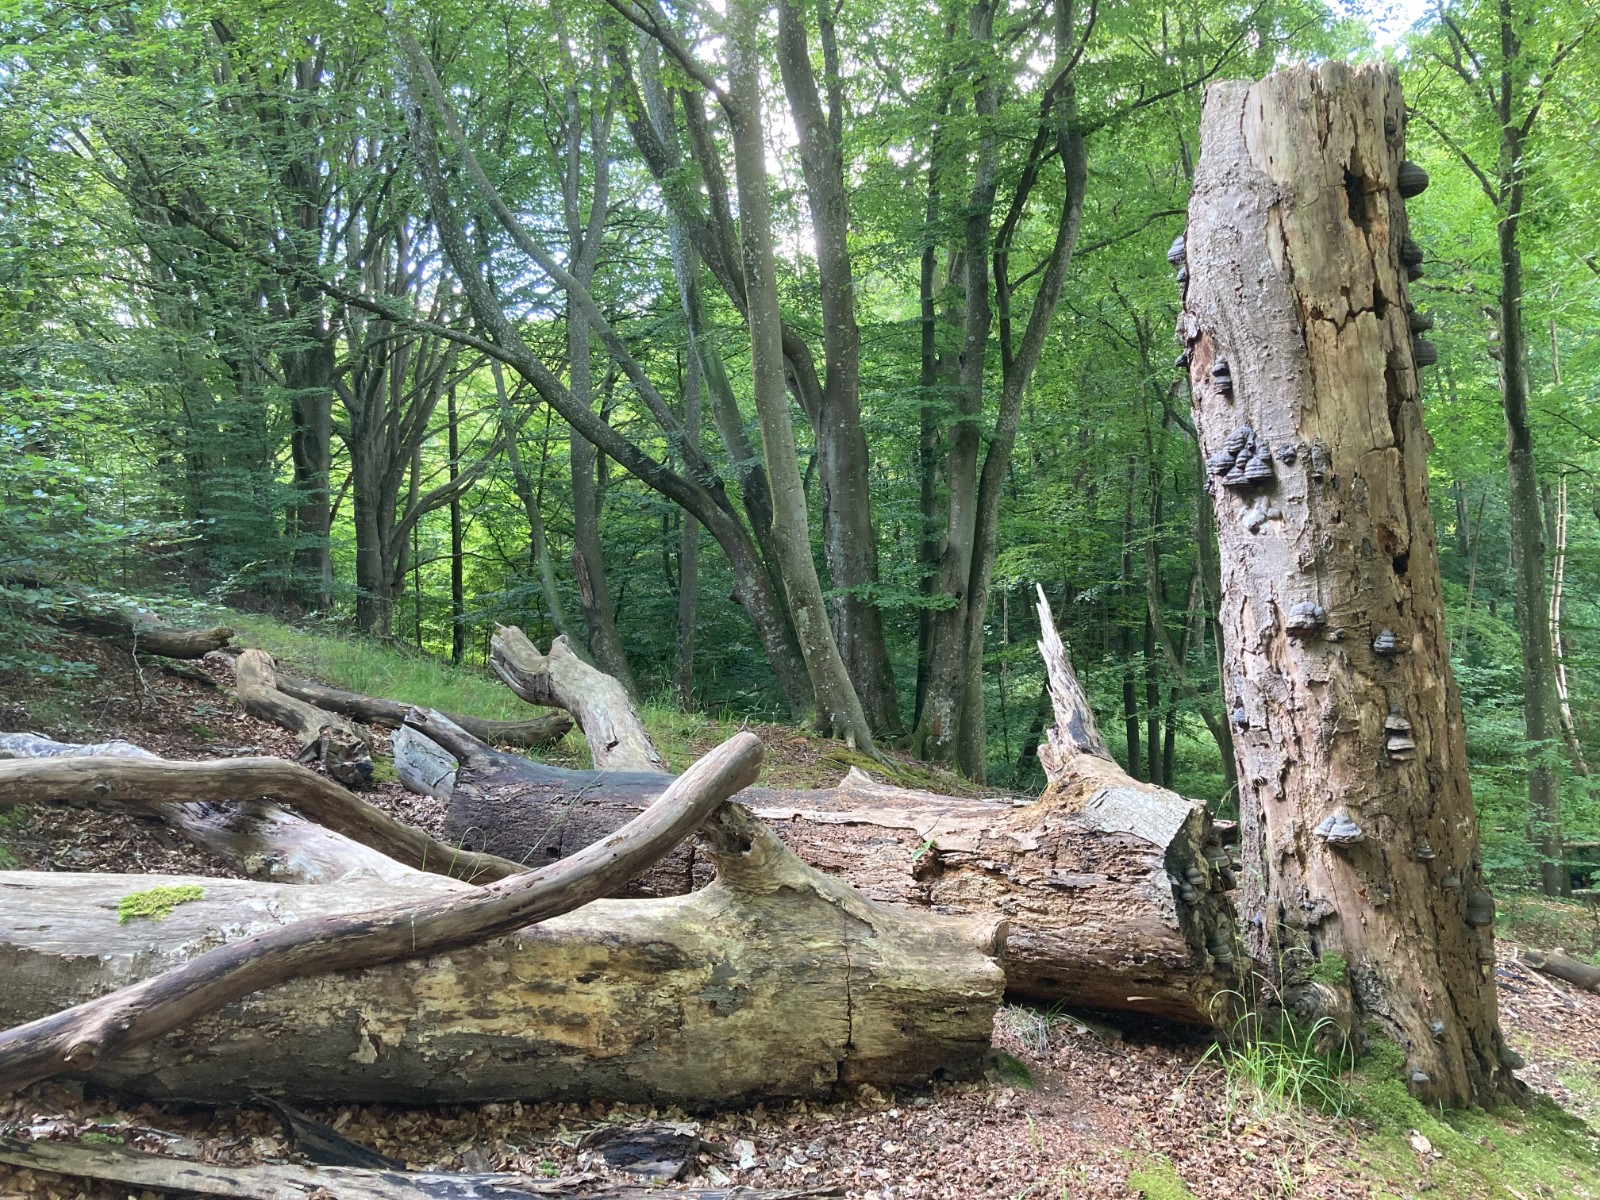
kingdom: Fungi
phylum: Basidiomycota
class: Agaricomycetes
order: Polyporales
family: Polyporaceae
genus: Fomes
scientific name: Fomes fomentarius
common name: tøndersvamp
